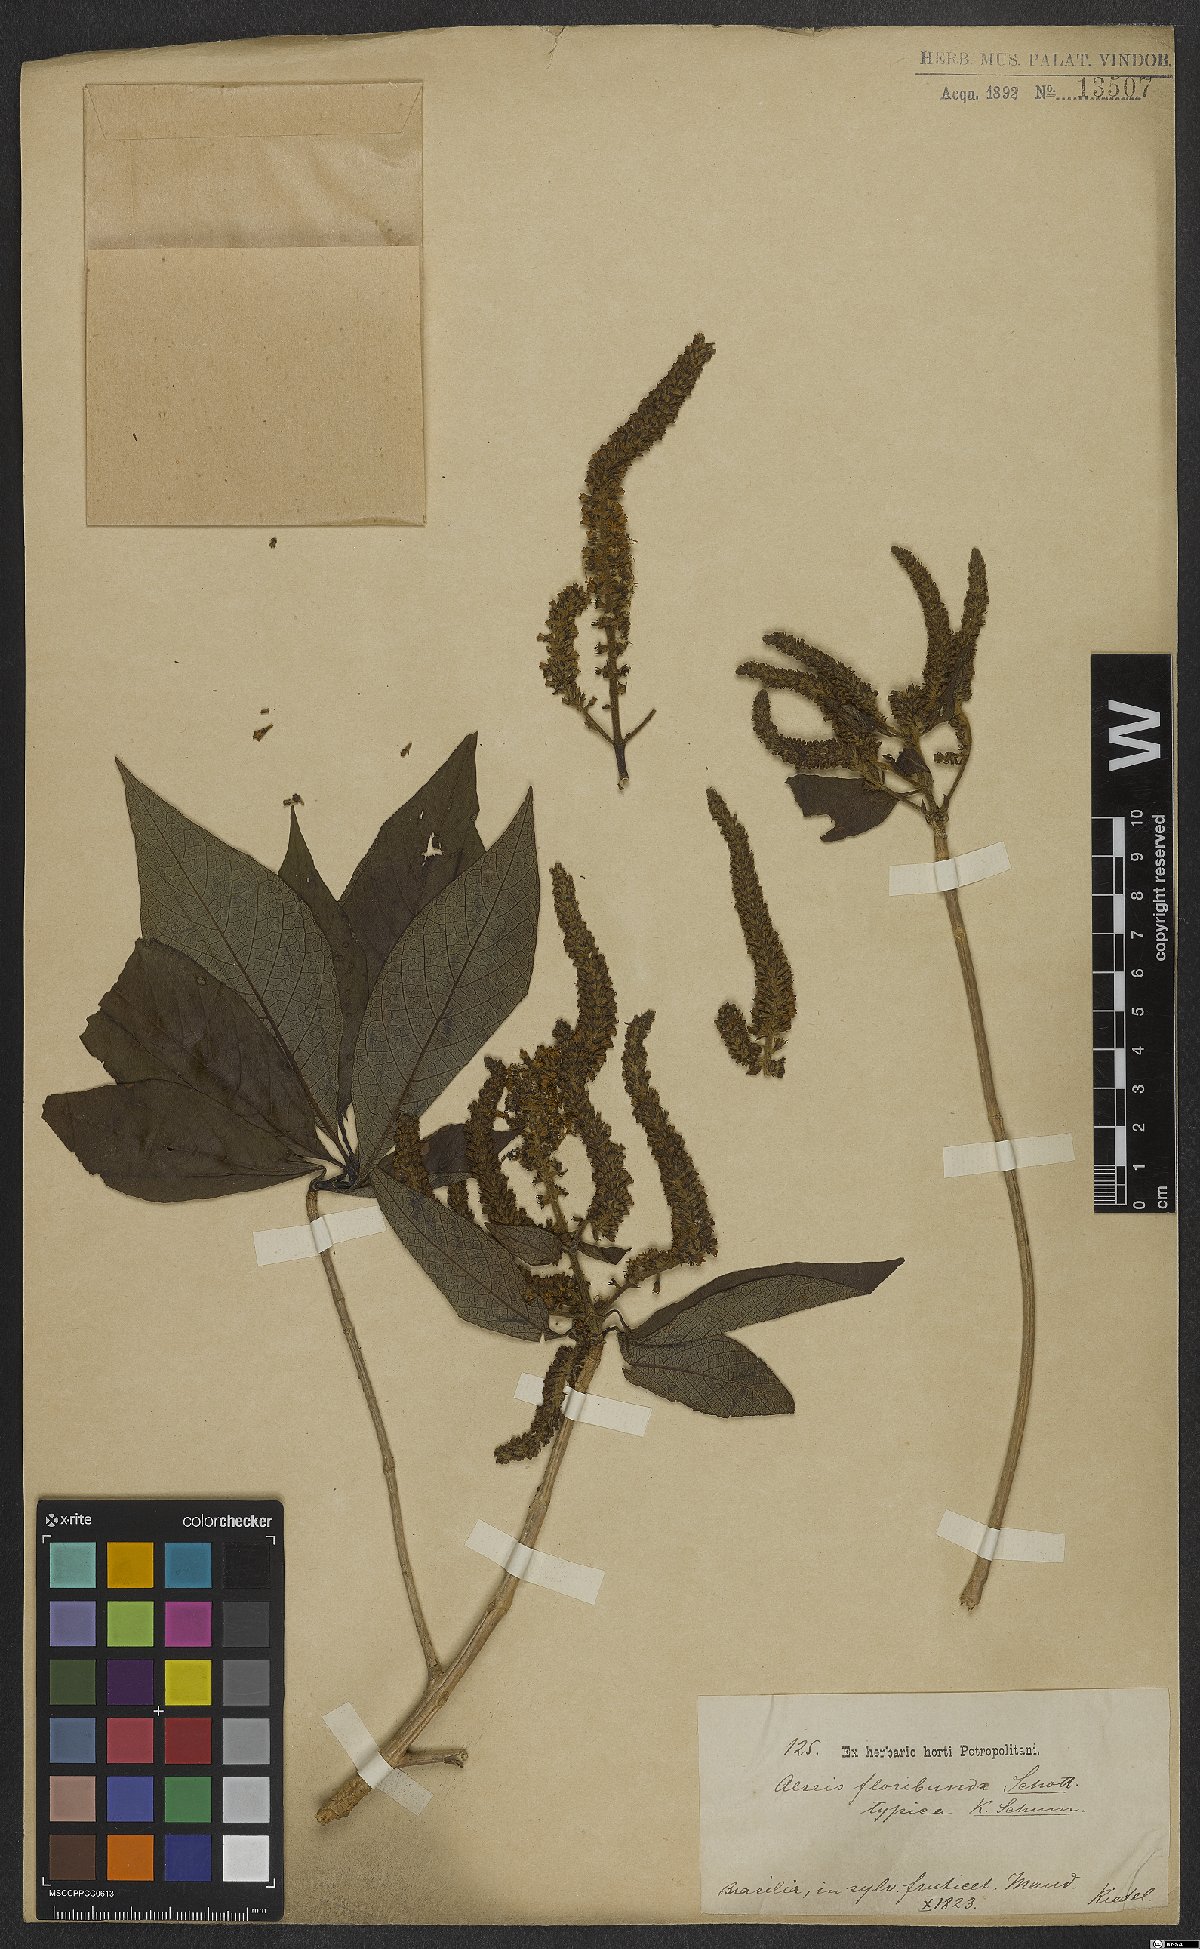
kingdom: Plantae
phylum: Tracheophyta
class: Magnoliopsida
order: Gentianales
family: Rubiaceae
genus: Alseis
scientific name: Alseis floribunda
